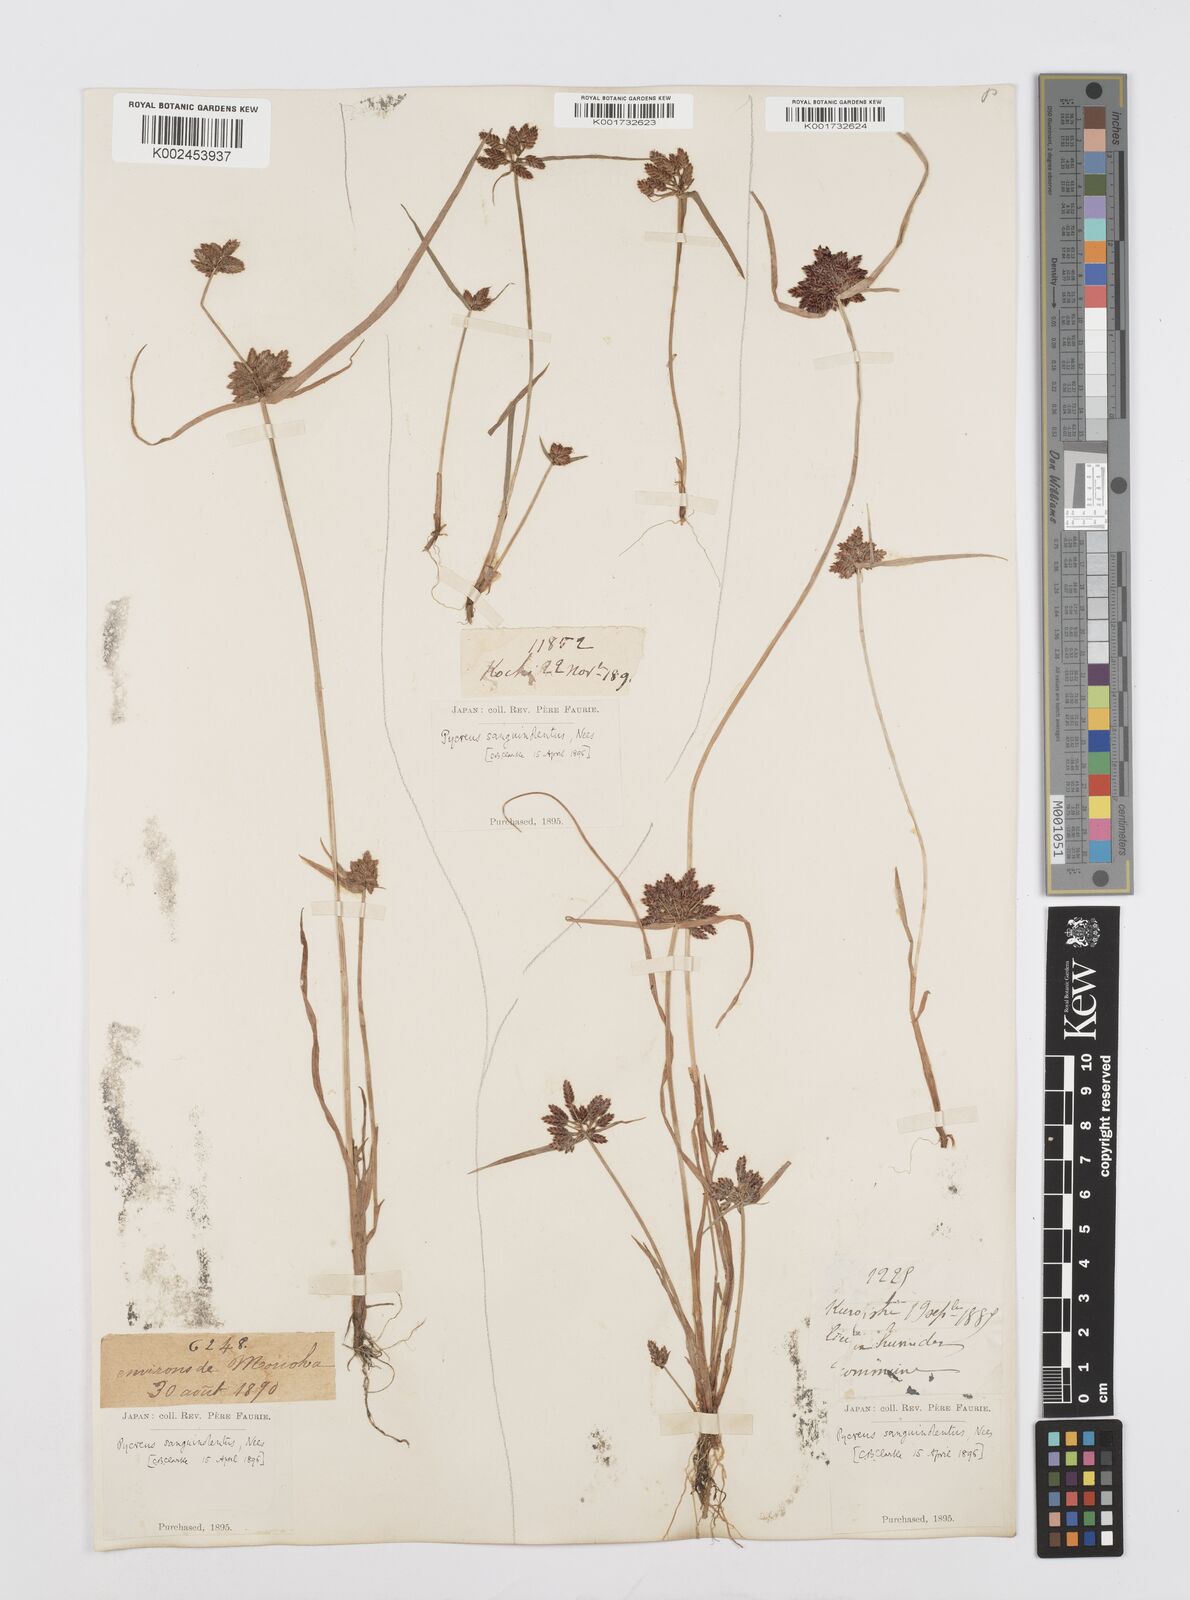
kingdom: Plantae
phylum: Tracheophyta
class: Liliopsida
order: Poales
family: Cyperaceae
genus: Cyperus
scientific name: Cyperus sanguinolentus
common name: Purpleglume flatsedge
